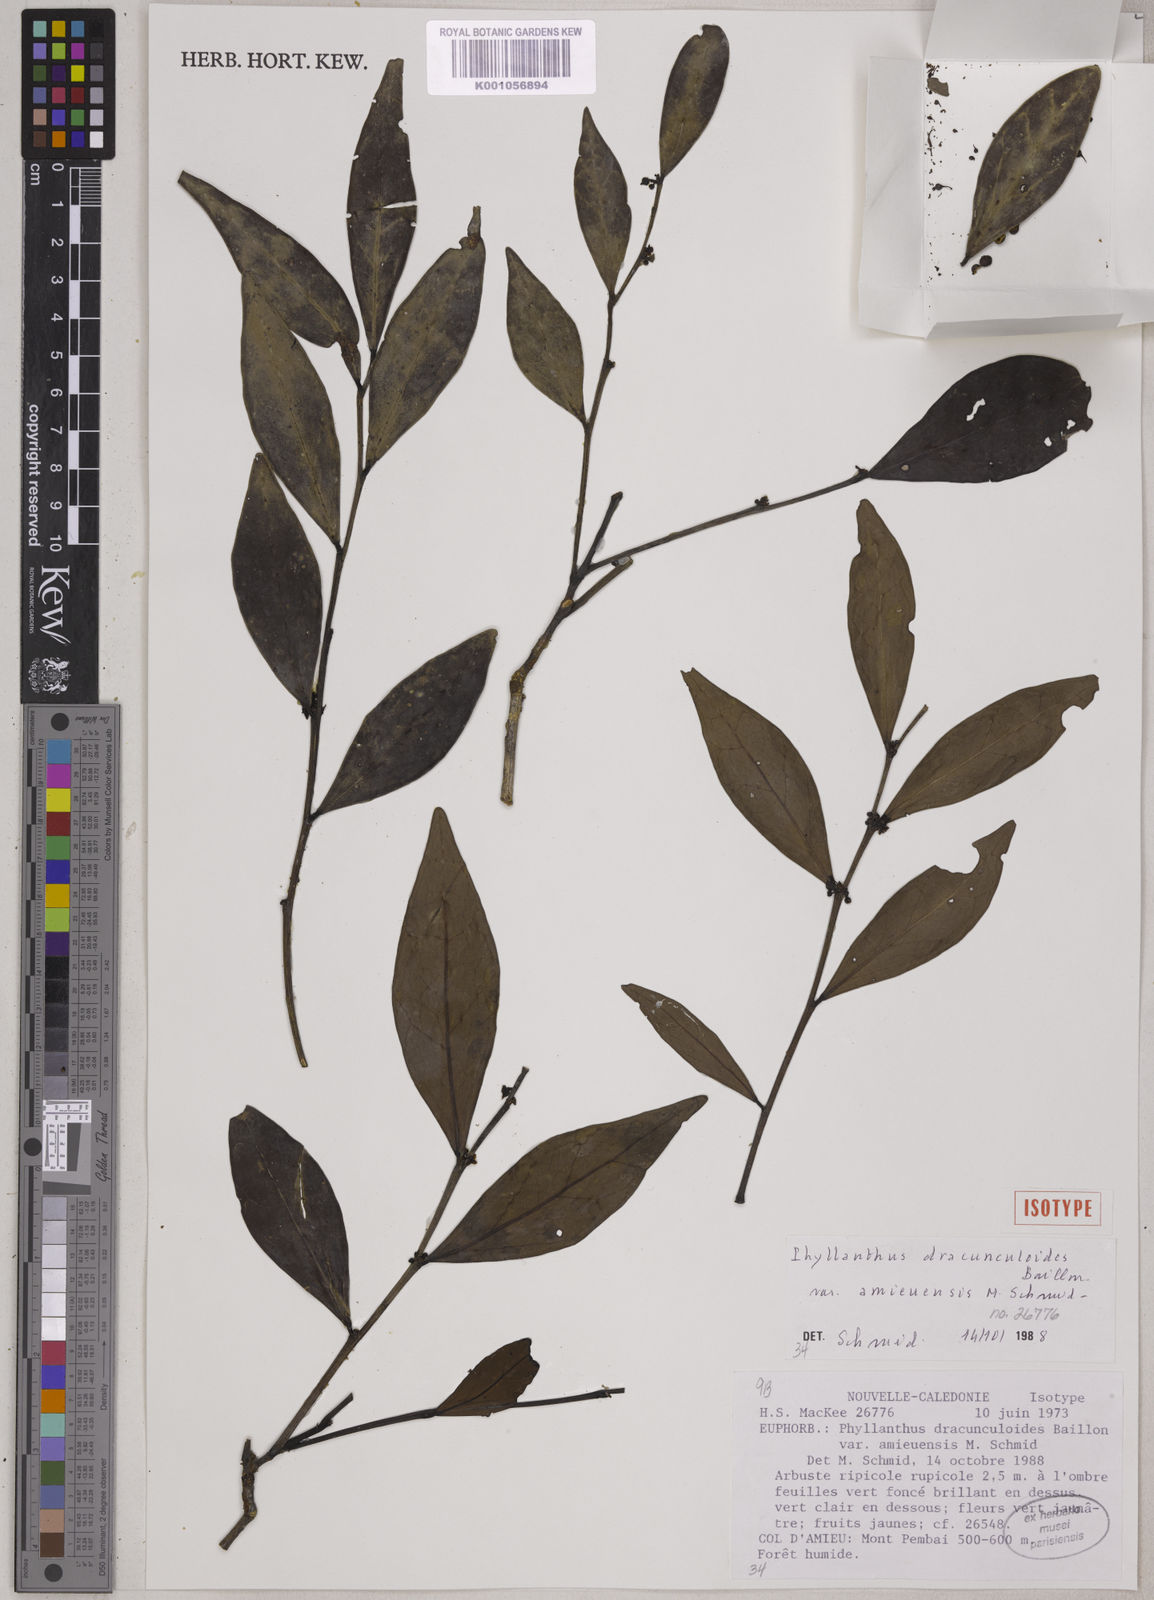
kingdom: Plantae
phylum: Tracheophyta
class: Magnoliopsida
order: Malpighiales
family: Phyllanthaceae
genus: Phyllanthus
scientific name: Phyllanthus dracunculoides
